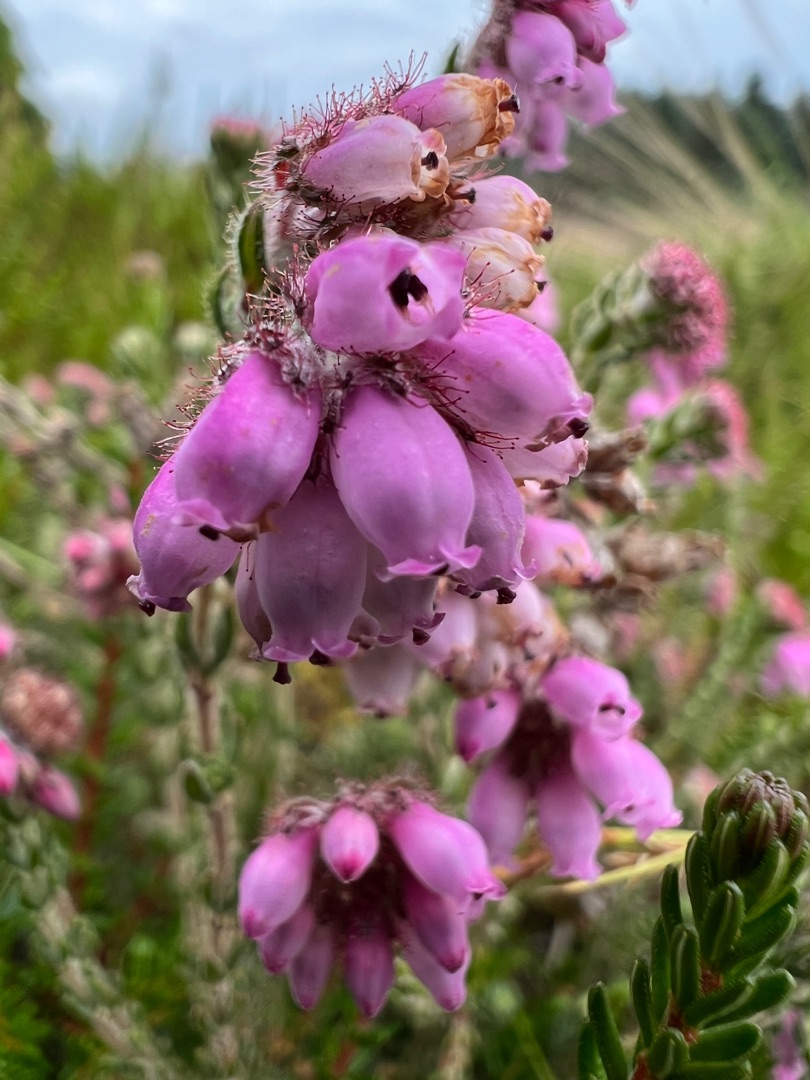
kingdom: Plantae
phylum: Tracheophyta
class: Magnoliopsida
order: Ericales
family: Ericaceae
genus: Erica
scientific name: Erica tetralix
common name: Klokkelyng
